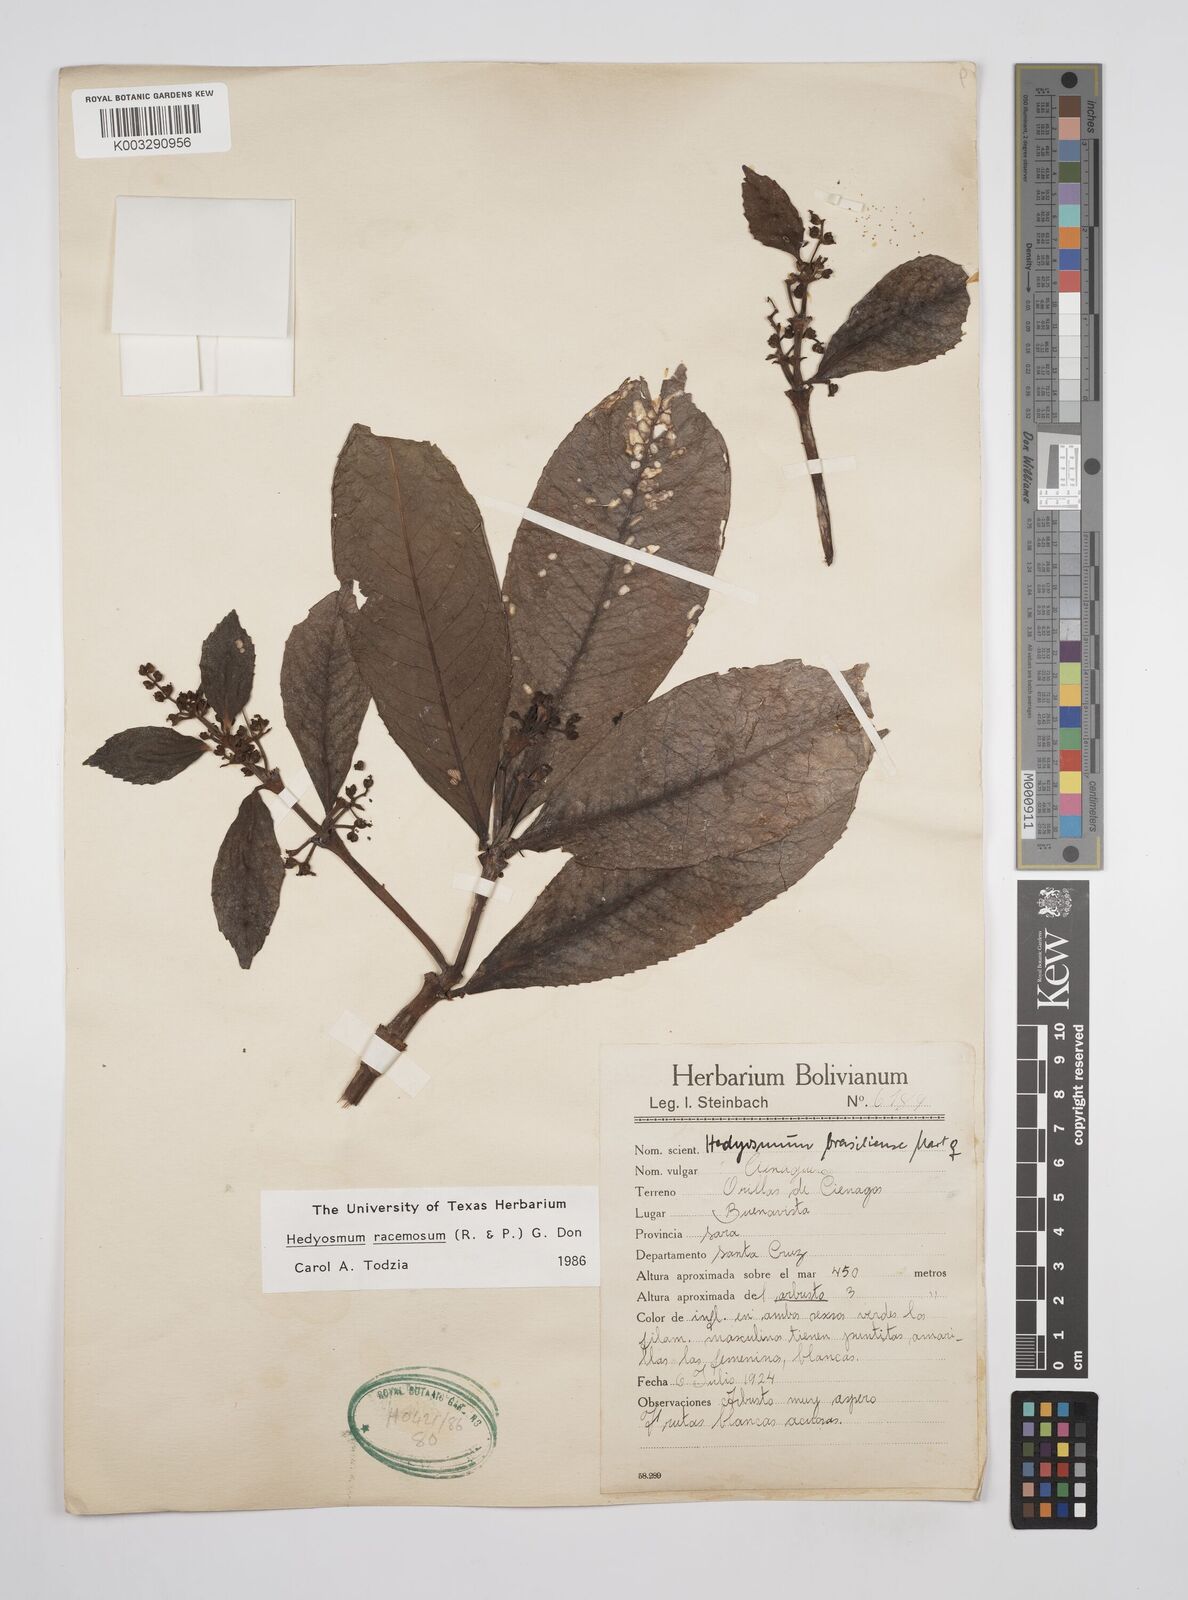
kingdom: Plantae
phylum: Tracheophyta
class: Magnoliopsida
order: Chloranthales
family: Chloranthaceae
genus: Hedyosmum
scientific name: Hedyosmum racemosum
